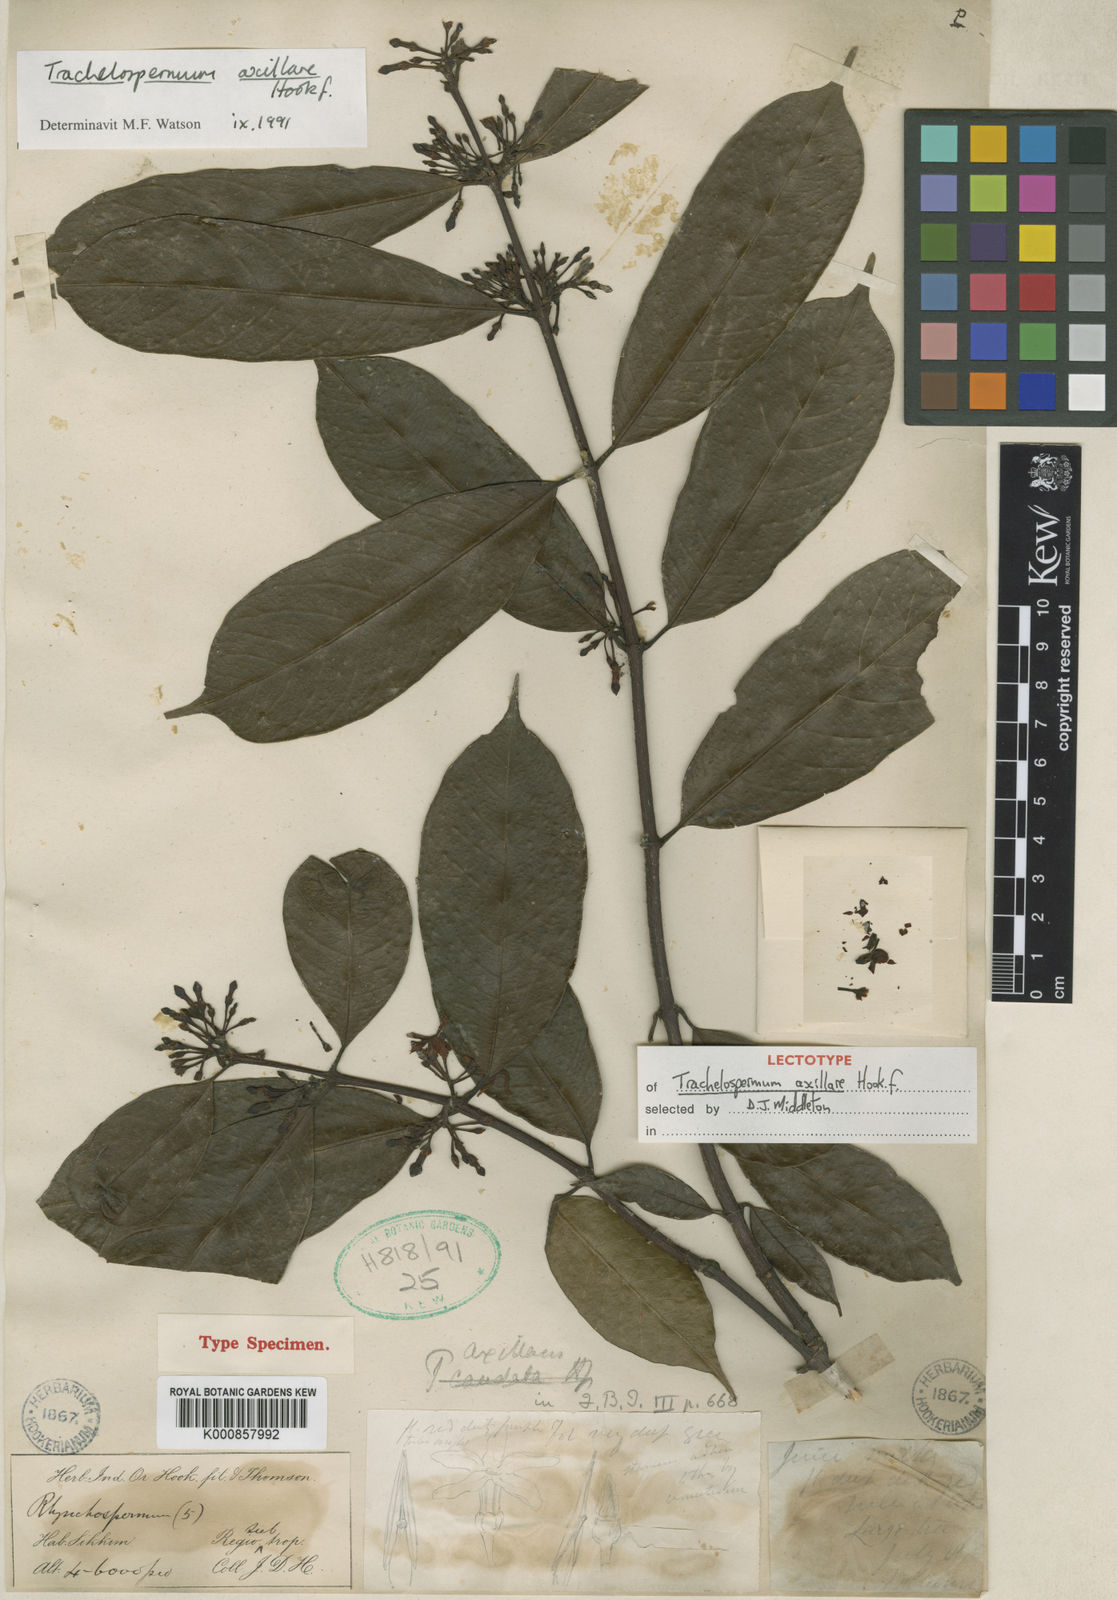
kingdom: Plantae
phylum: Tracheophyta
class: Magnoliopsida
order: Gentianales
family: Apocynaceae
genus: Trachelospermum
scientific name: Trachelospermum axillare
